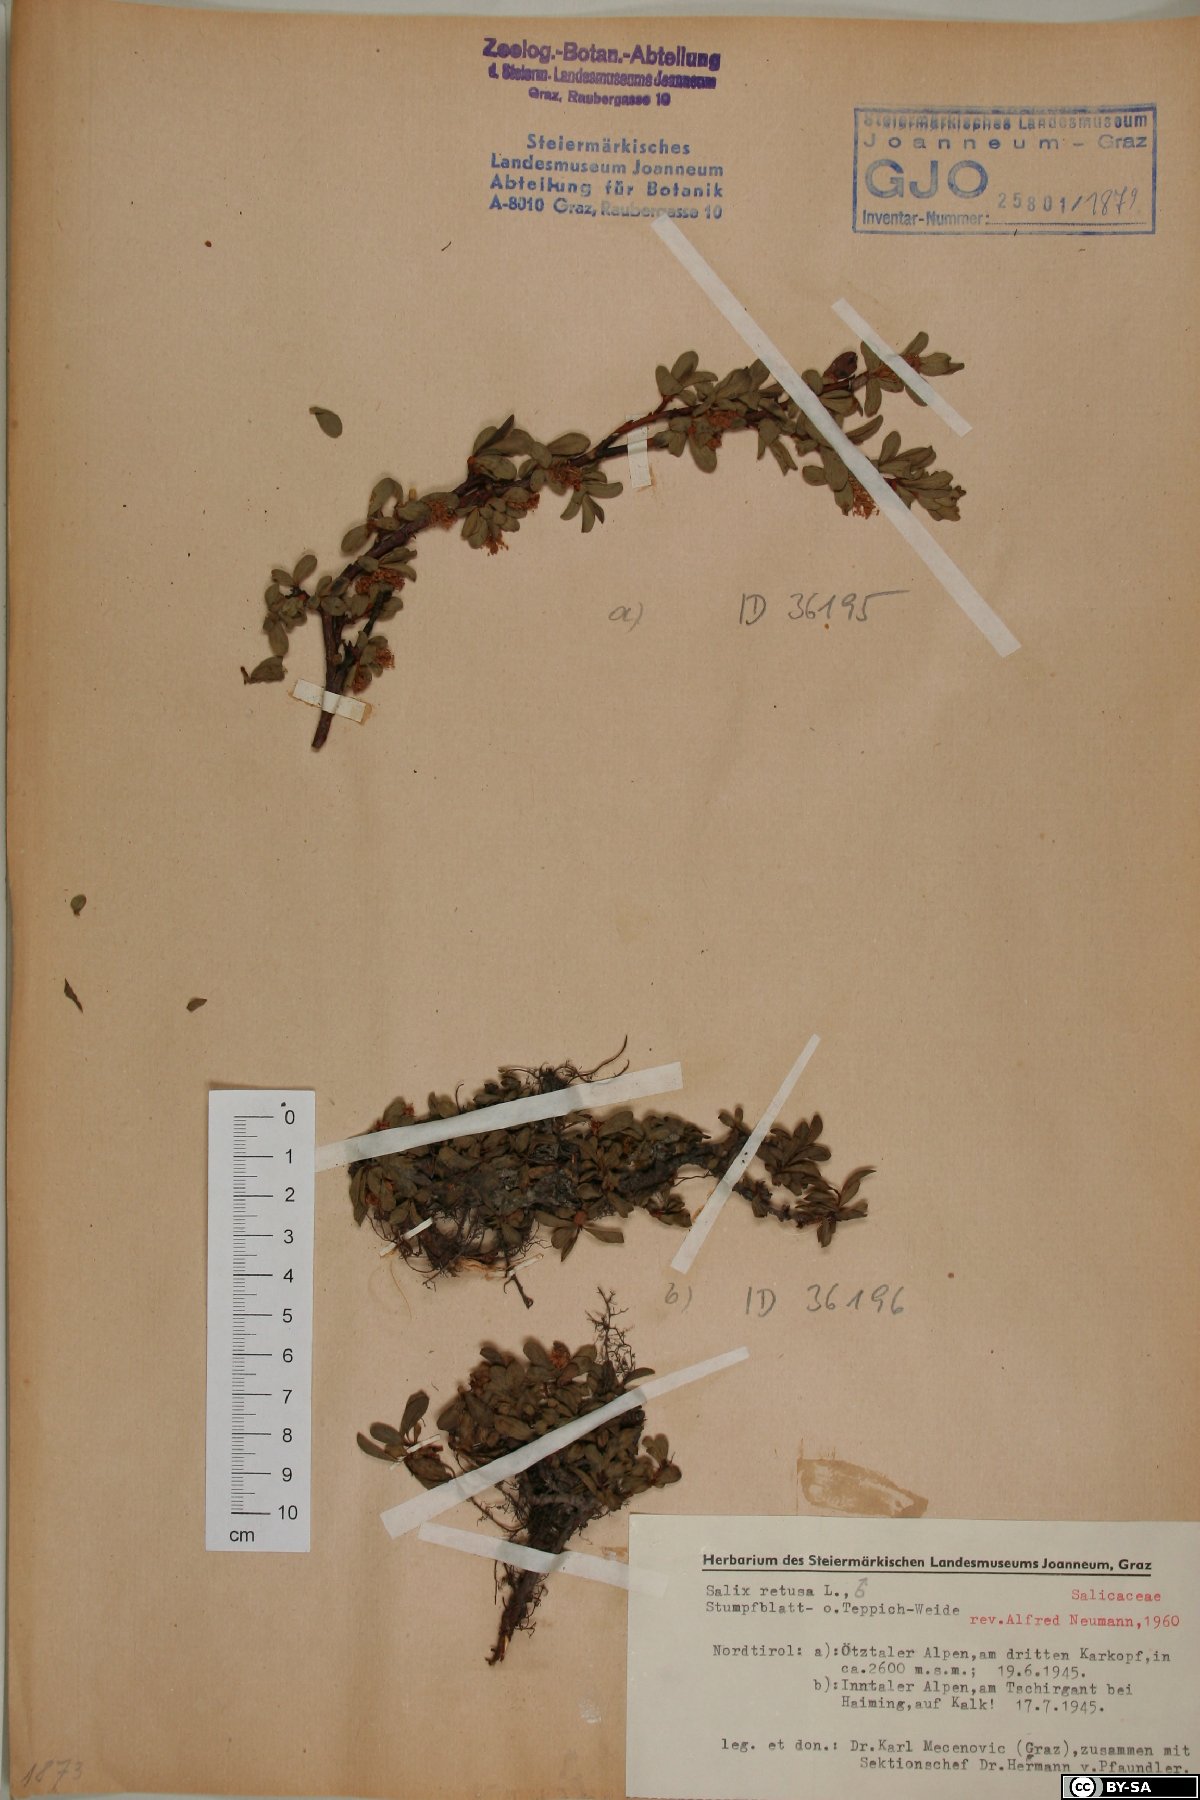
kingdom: Plantae
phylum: Tracheophyta
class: Magnoliopsida
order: Malpighiales
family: Salicaceae
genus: Salix
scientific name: Salix retusa
